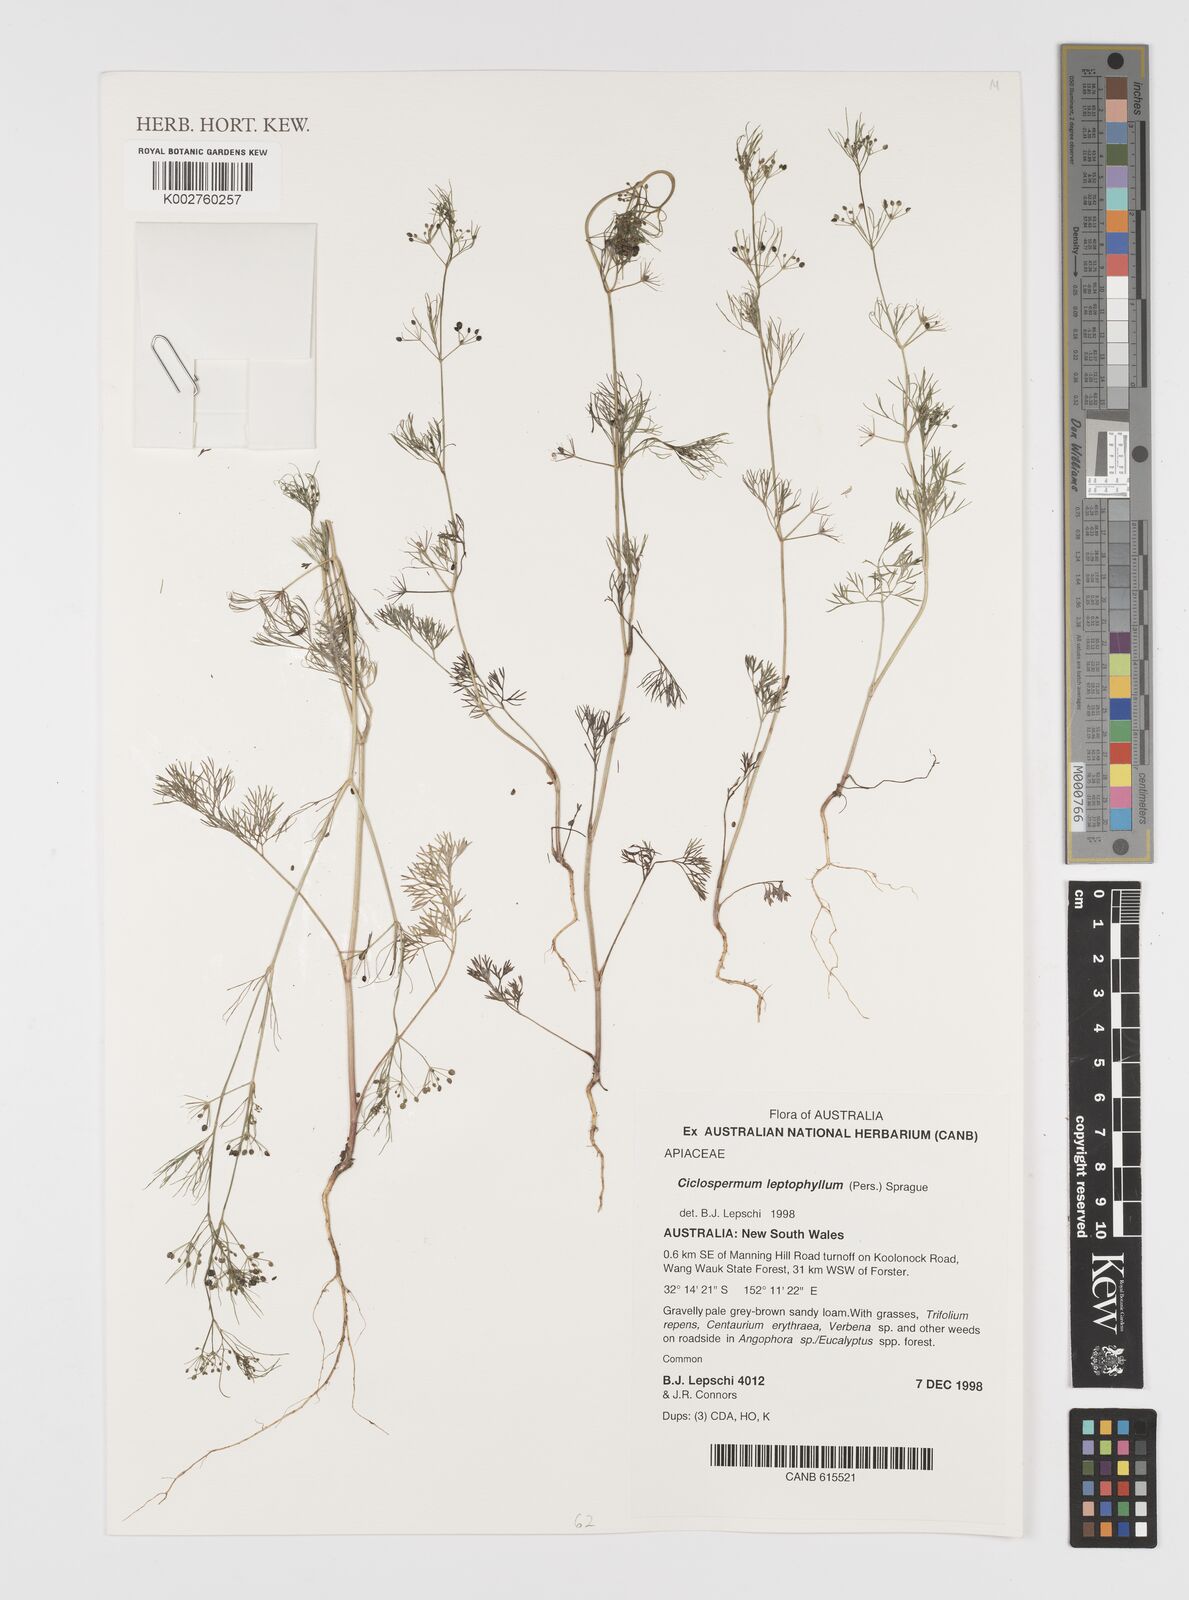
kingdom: Plantae
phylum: Tracheophyta
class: Magnoliopsida
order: Apiales
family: Apiaceae
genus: Cyclospermum
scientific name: Cyclospermum leptophyllum
